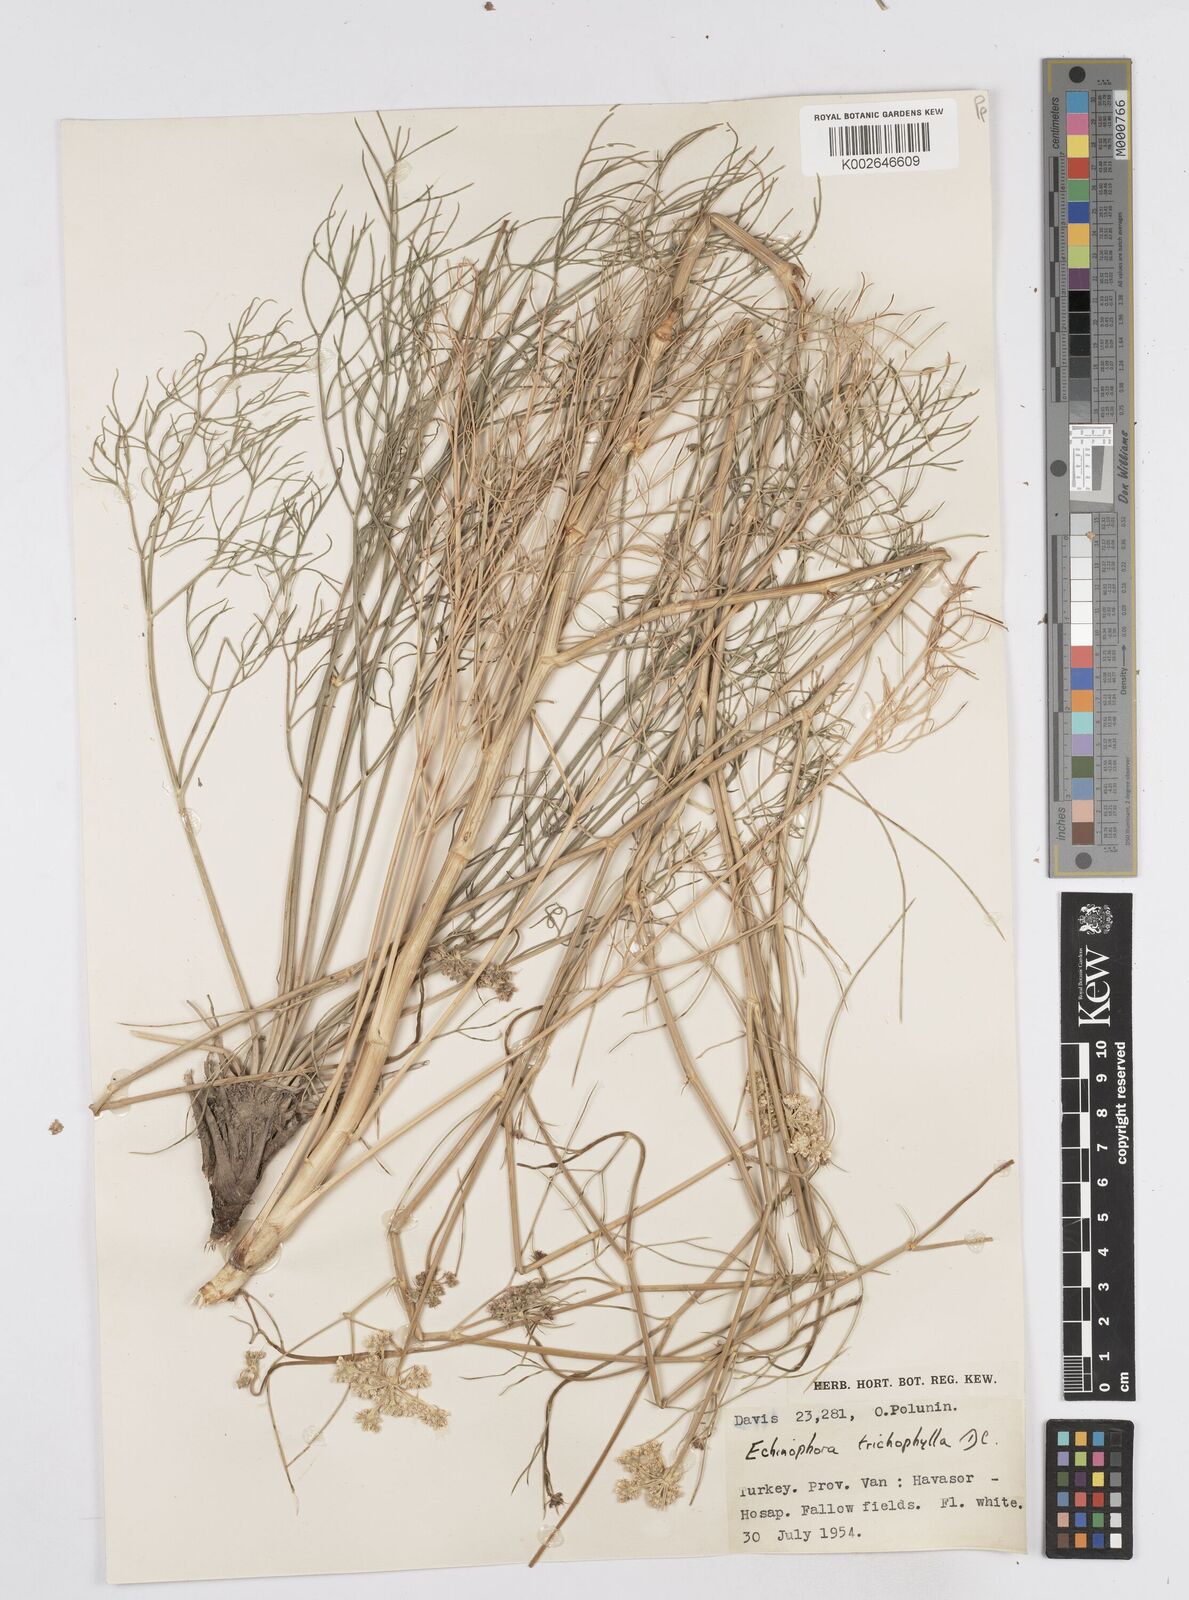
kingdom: Plantae
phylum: Tracheophyta
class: Magnoliopsida
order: Apiales
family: Apiaceae
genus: Echinophora
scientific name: Echinophora trichophylla
